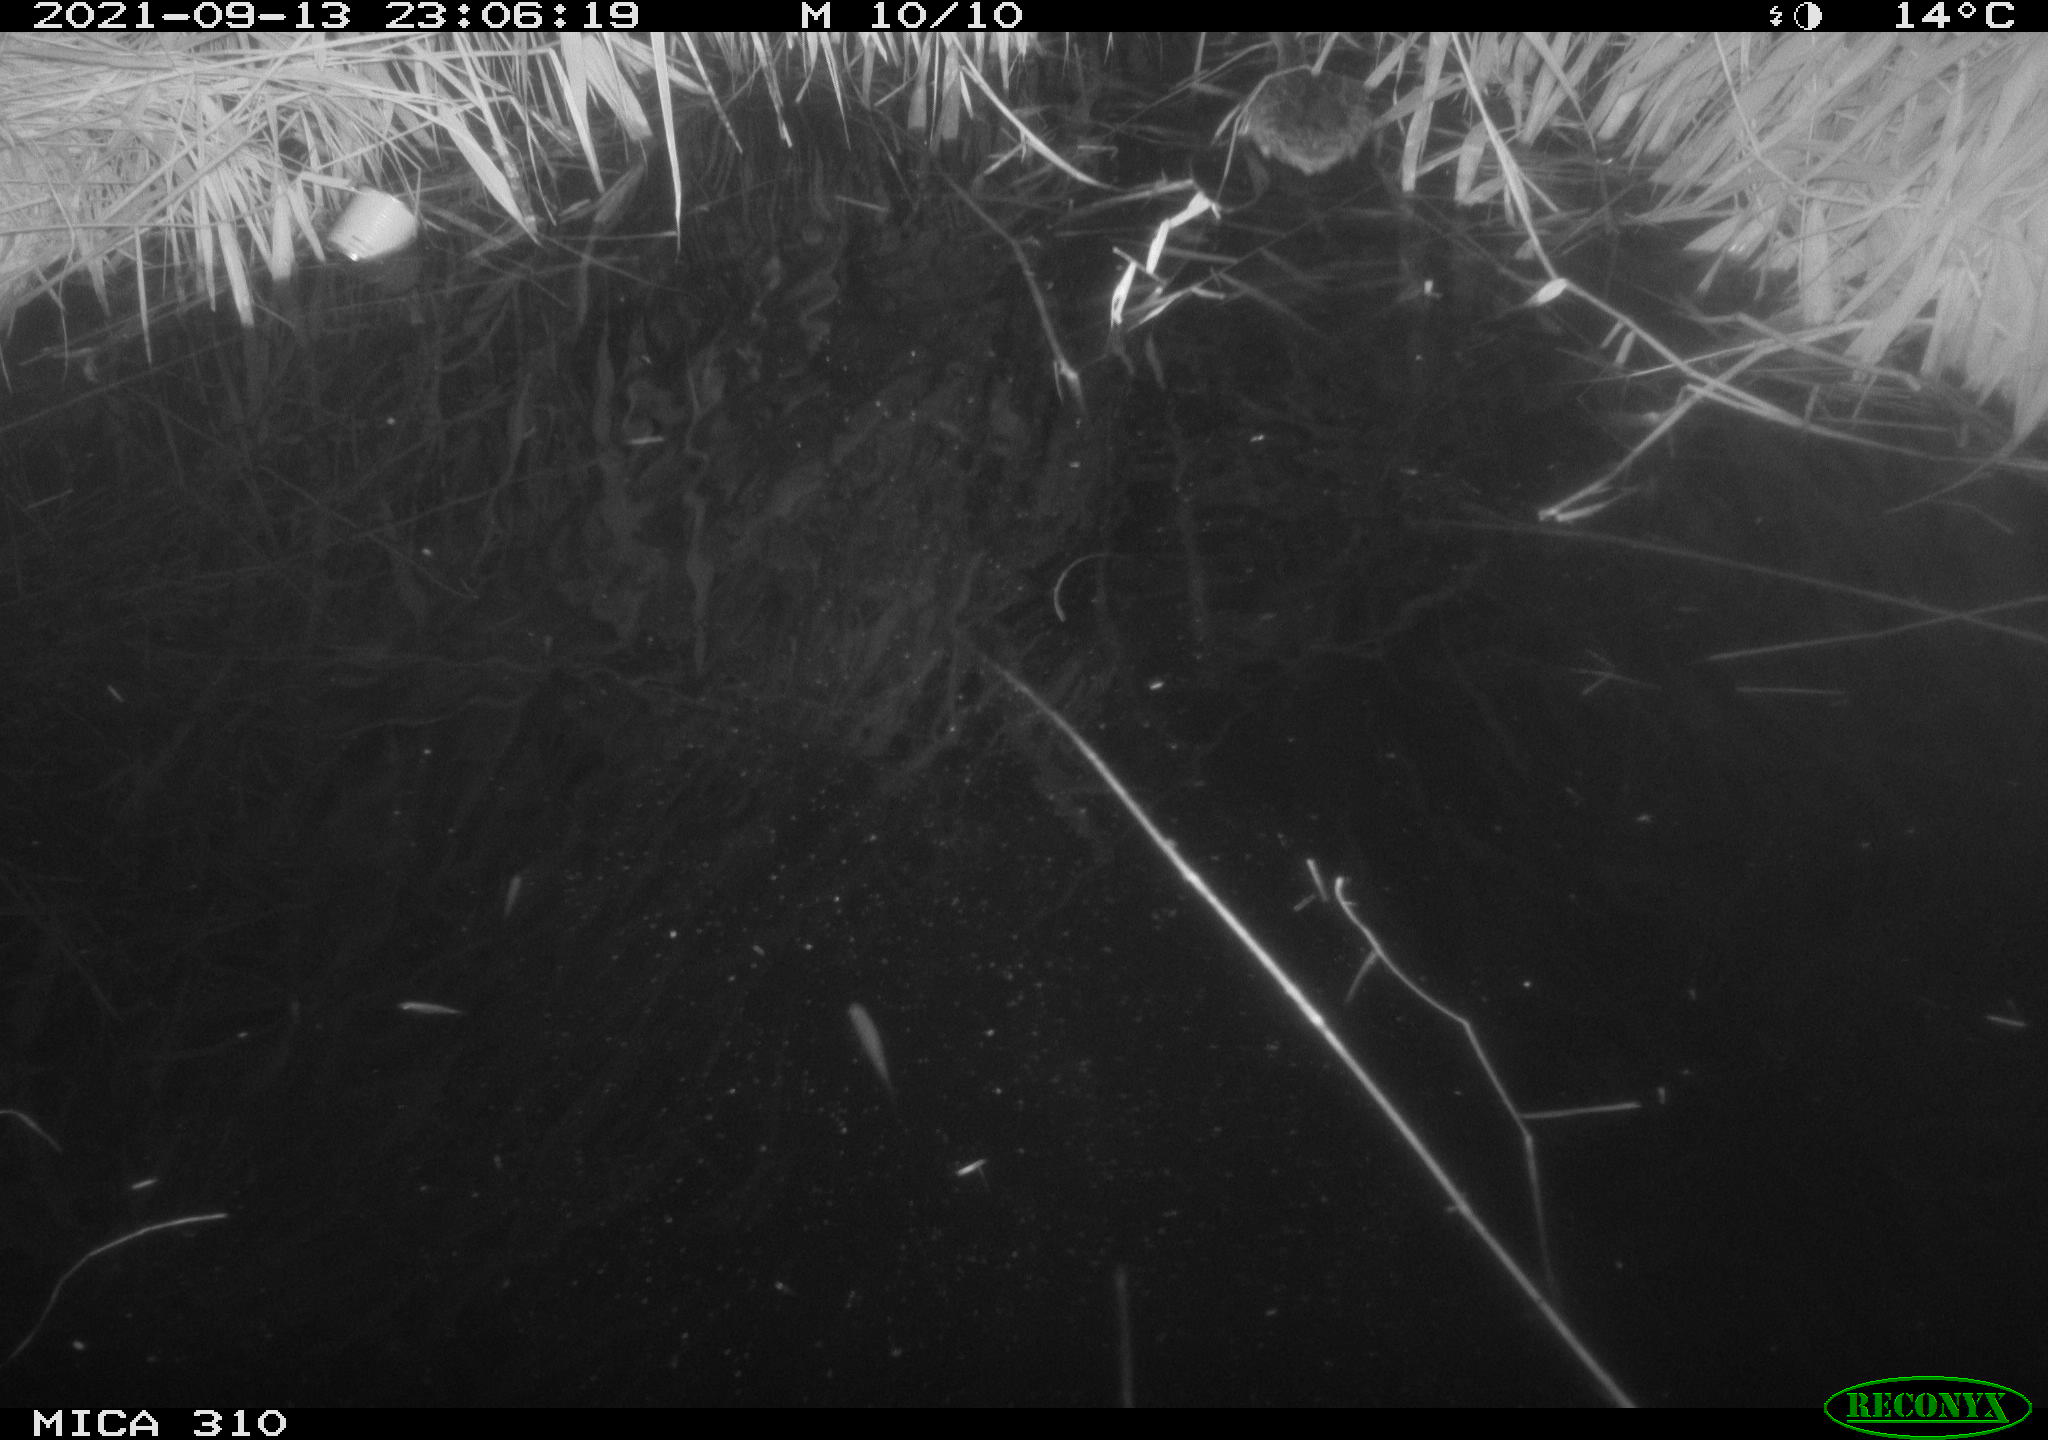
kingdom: Animalia
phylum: Chordata
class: Aves
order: Anseriformes
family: Anatidae
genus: Mareca
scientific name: Mareca strepera
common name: Gadwall
